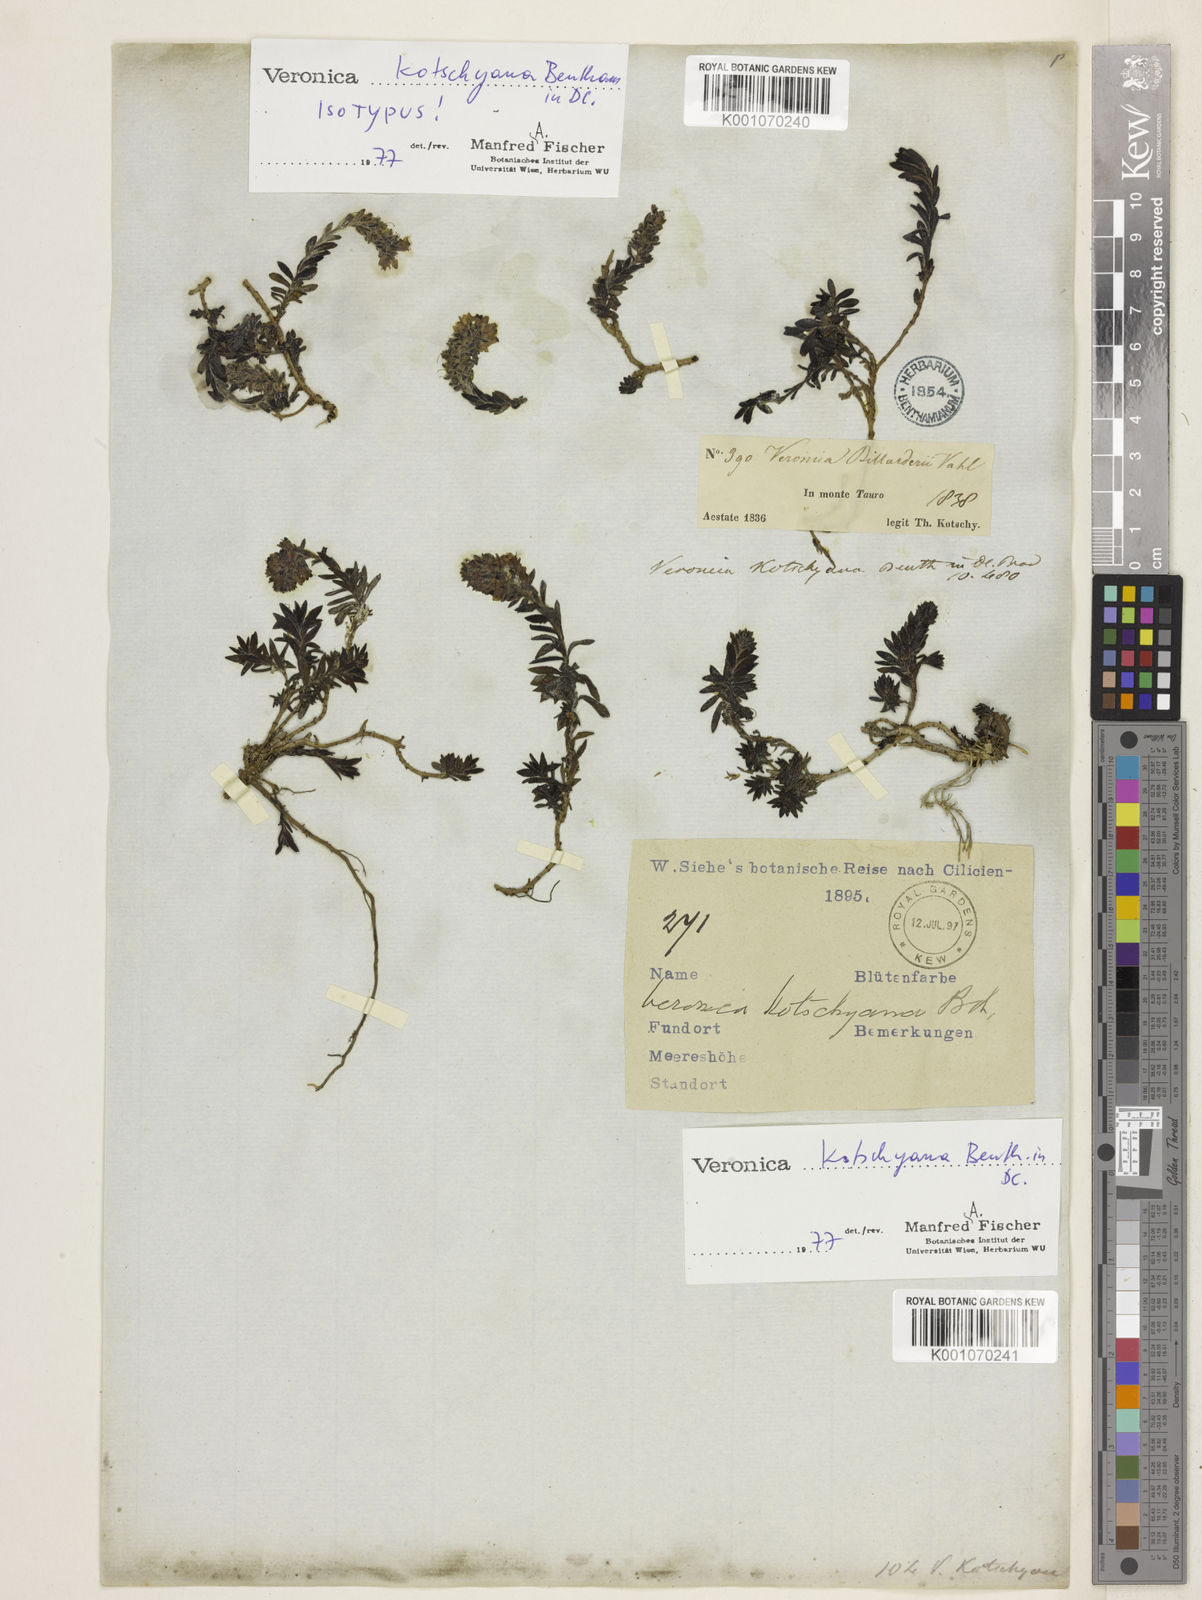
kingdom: Plantae
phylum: Tracheophyta
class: Magnoliopsida
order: Lamiales
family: Plantaginaceae
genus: Veronica
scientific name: Veronica kotschyana
